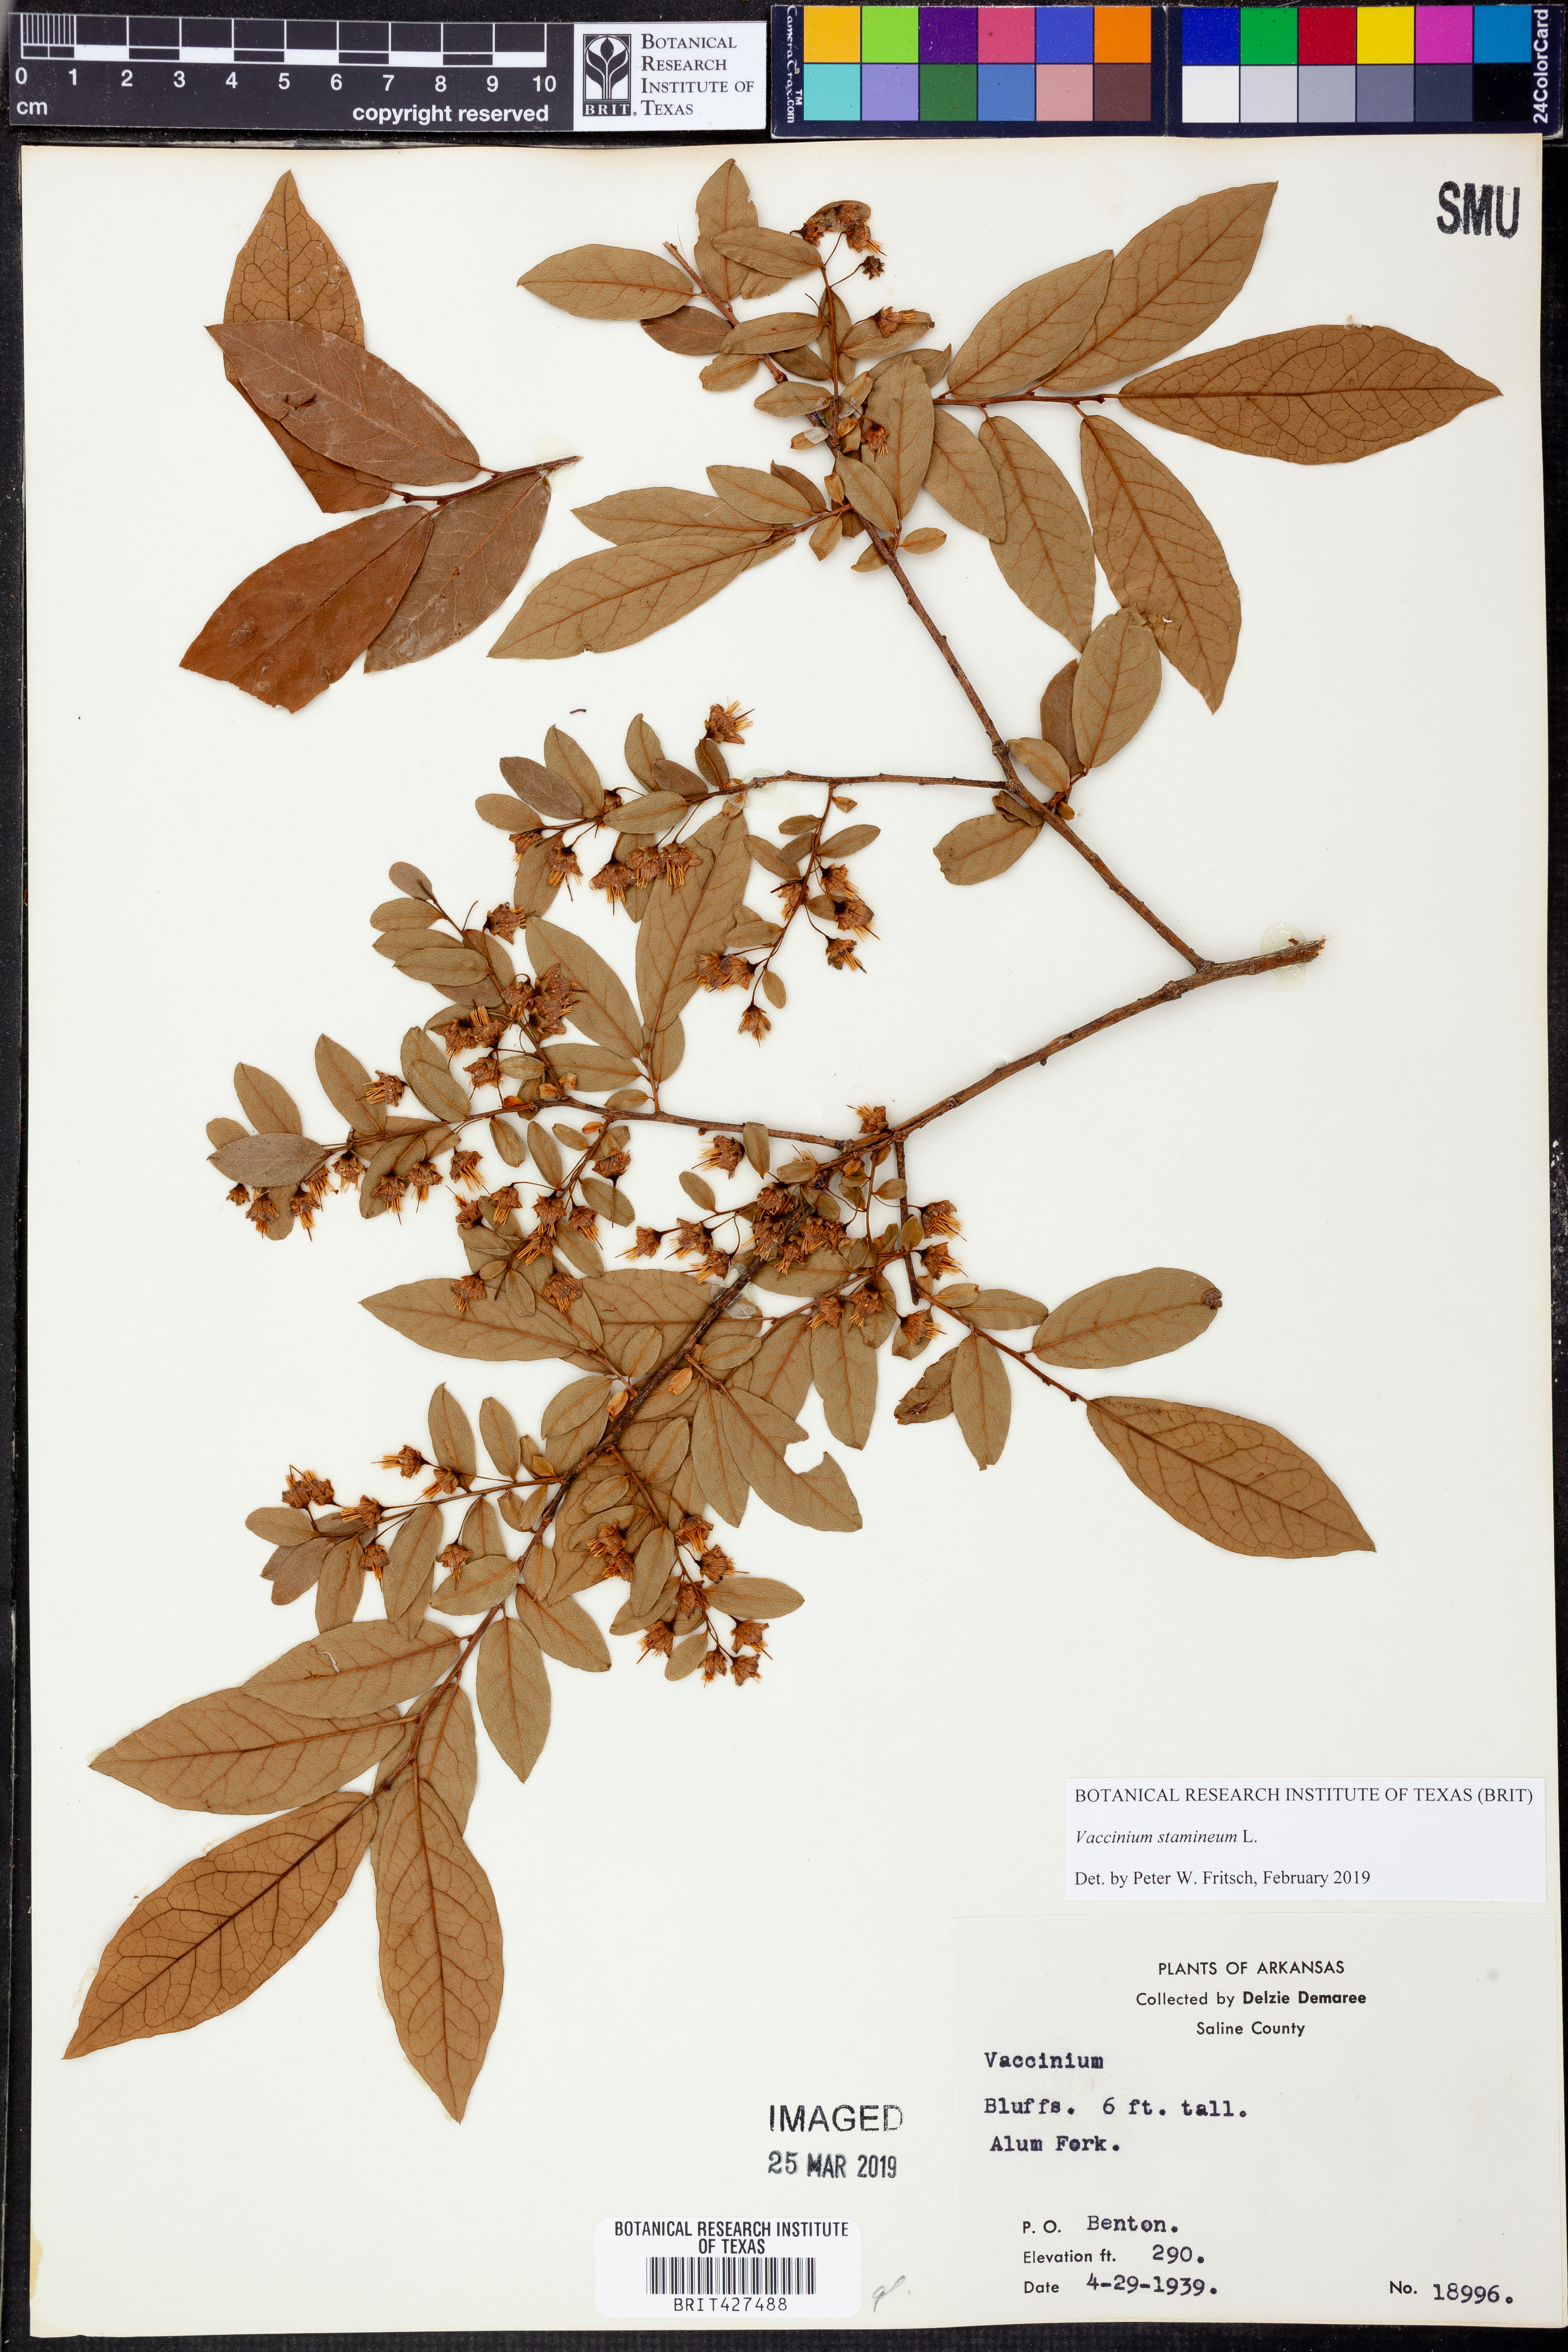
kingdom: Plantae
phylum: Tracheophyta
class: Magnoliopsida
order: Ericales
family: Ericaceae
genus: Vaccinium
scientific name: Vaccinium stamineum
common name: Deerberry
